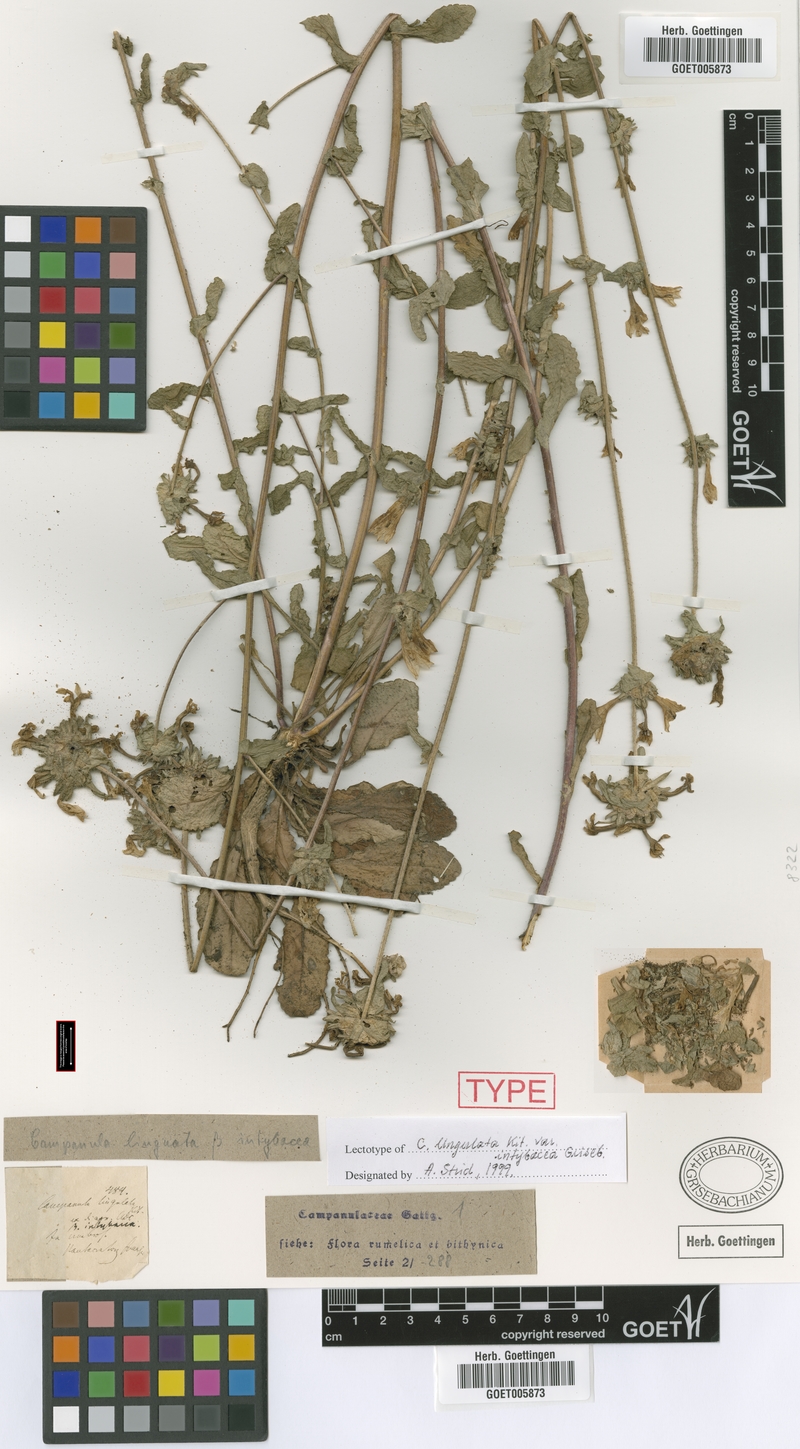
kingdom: Plantae
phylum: Tracheophyta
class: Magnoliopsida
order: Asterales
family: Campanulaceae
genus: Campanula
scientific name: Campanula lingulata
